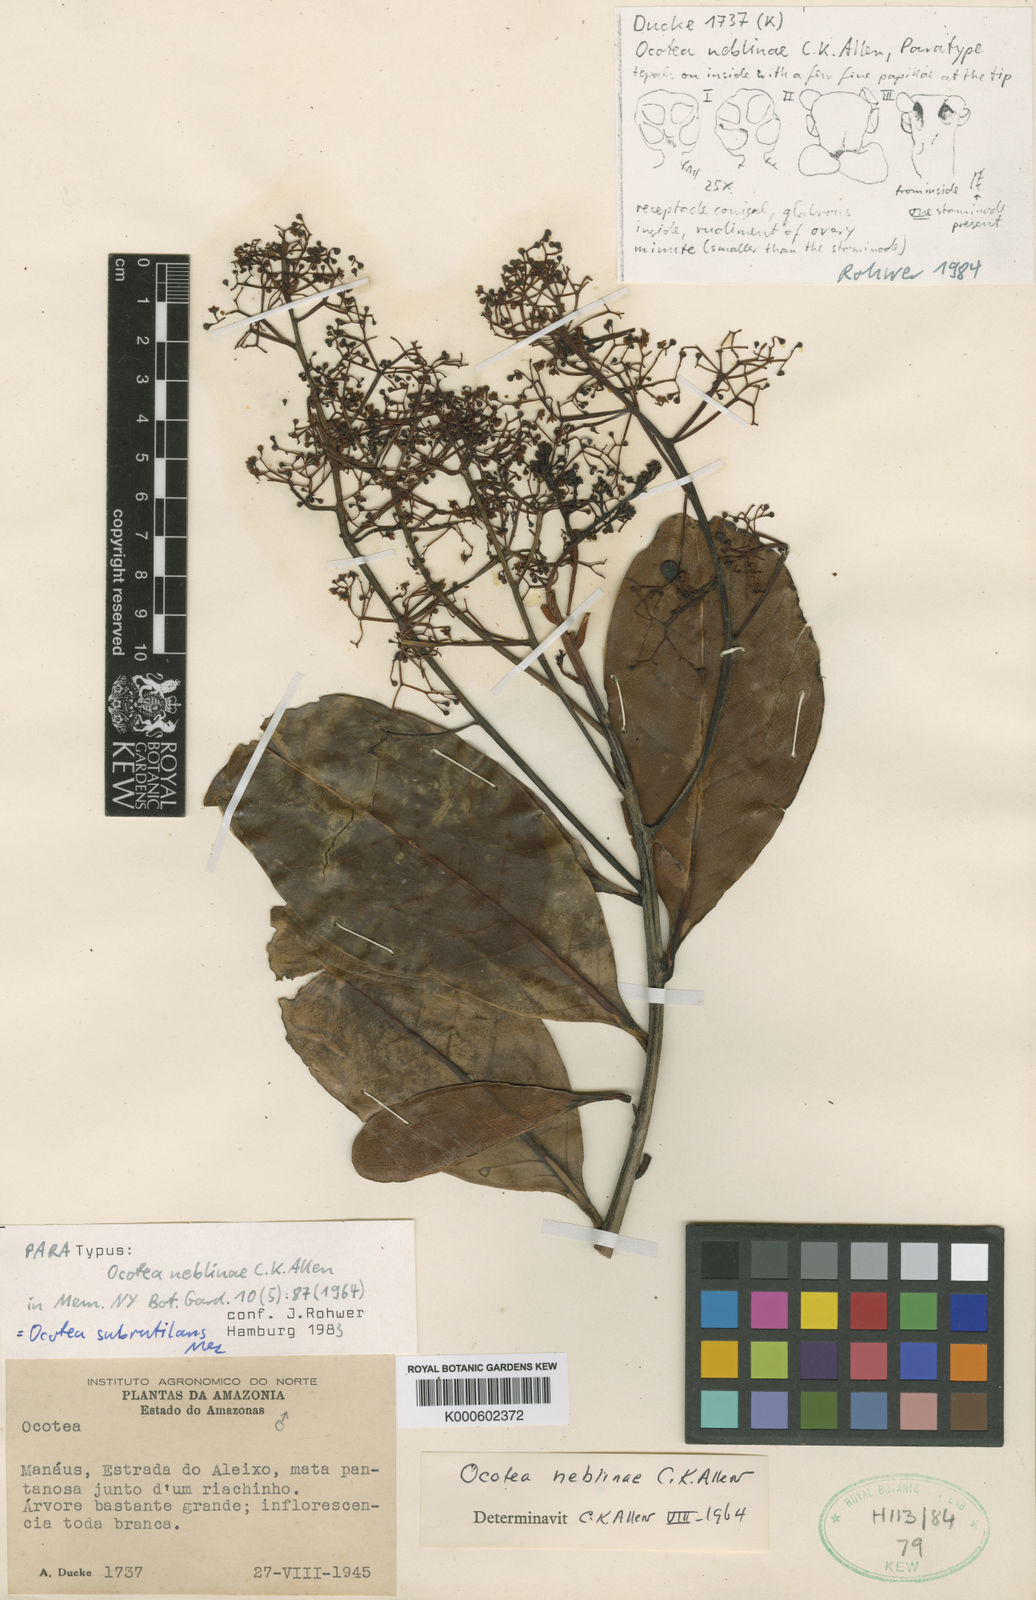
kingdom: Plantae
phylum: Tracheophyta
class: Magnoliopsida
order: Laurales
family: Lauraceae
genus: Ocotea
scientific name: Ocotea subrutilans
